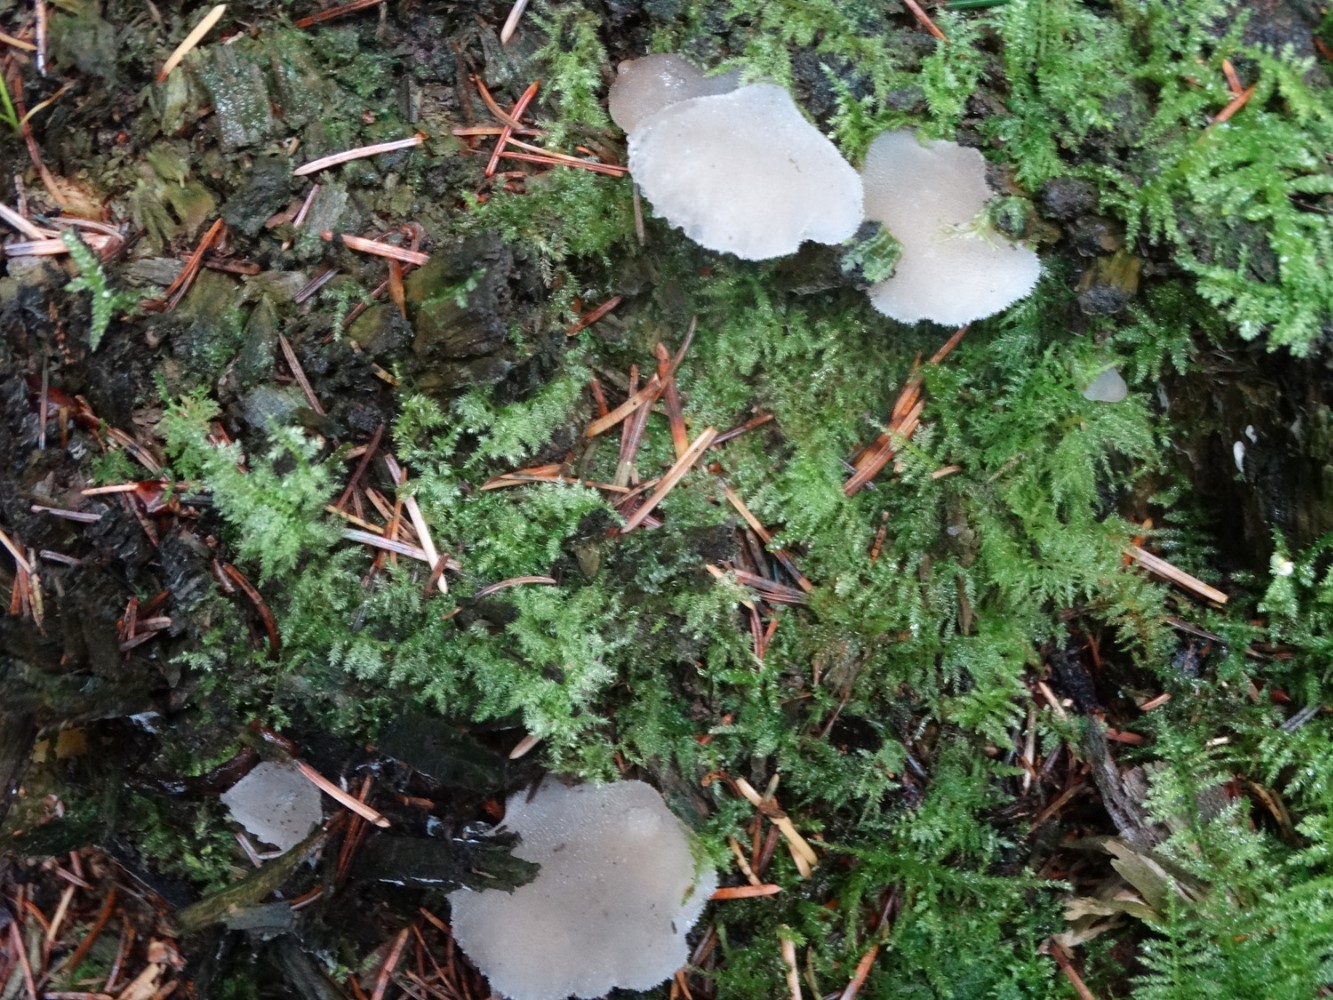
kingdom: Fungi
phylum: Basidiomycota
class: Agaricomycetes
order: Auriculariales
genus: Pseudohydnum
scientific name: Pseudohydnum gelatinosum
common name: bævretand
